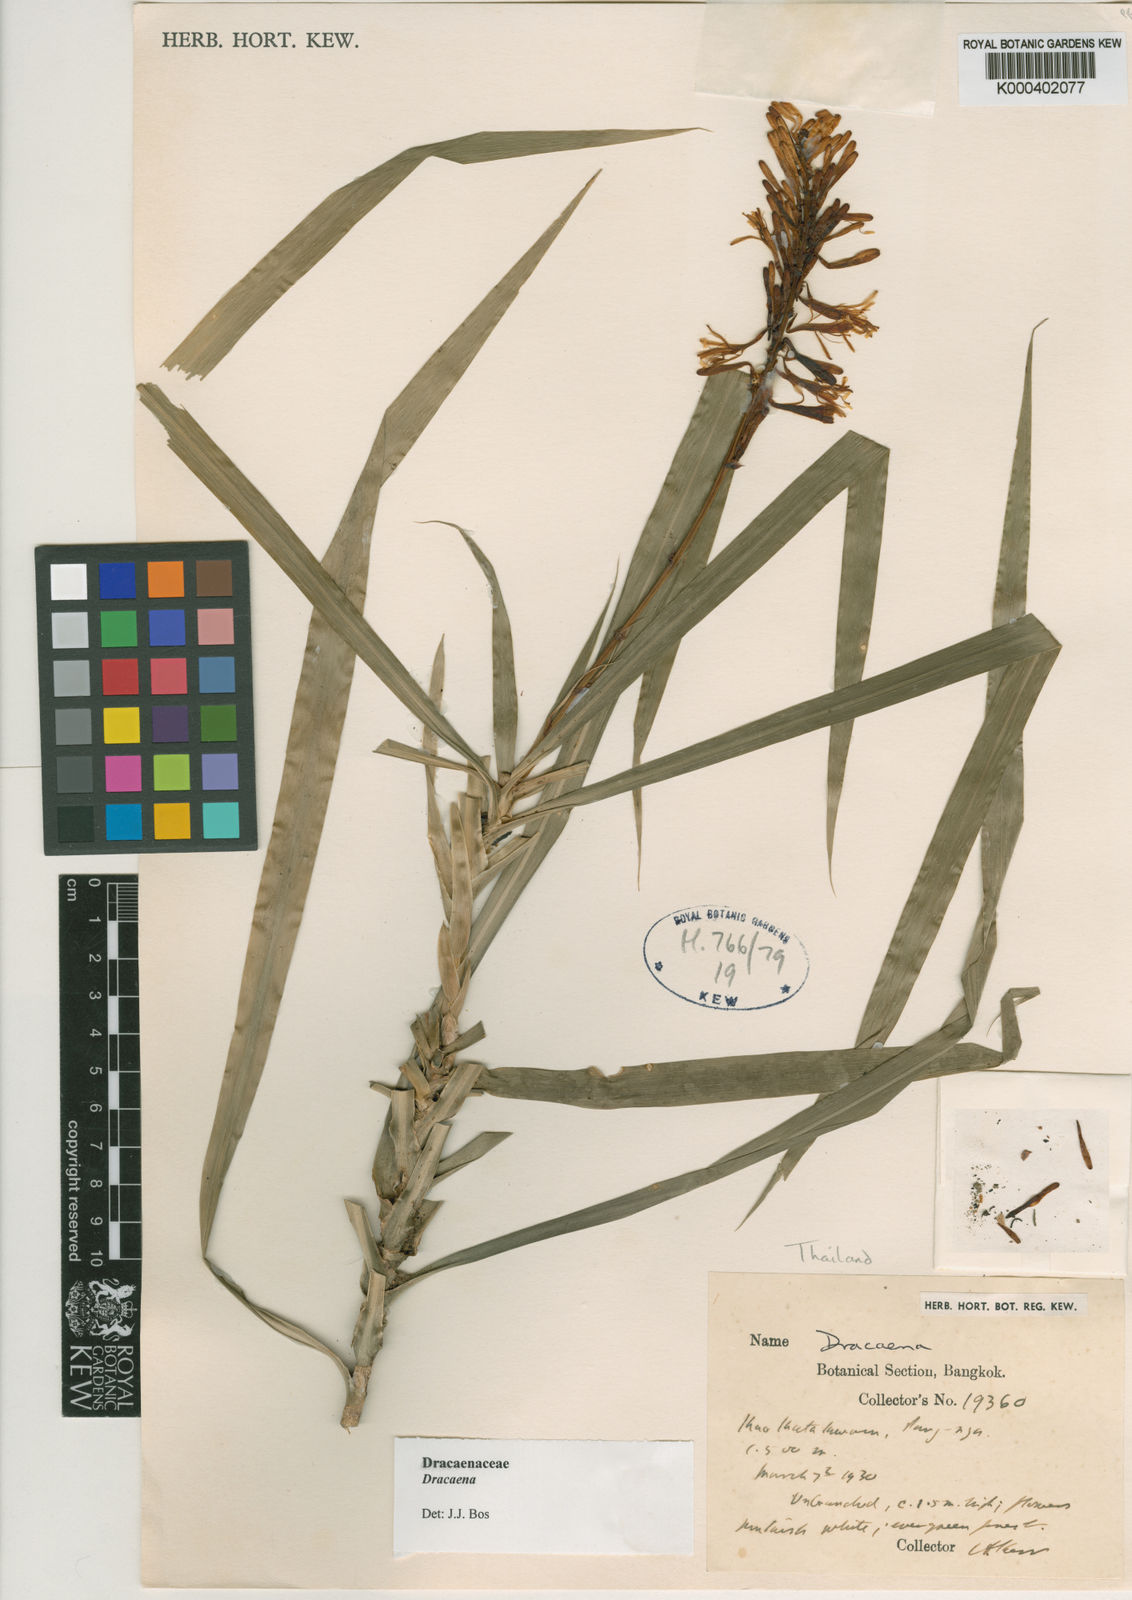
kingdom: Plantae
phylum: Tracheophyta
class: Liliopsida
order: Asparagales
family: Asparagaceae
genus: Dracaena
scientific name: Dracaena
